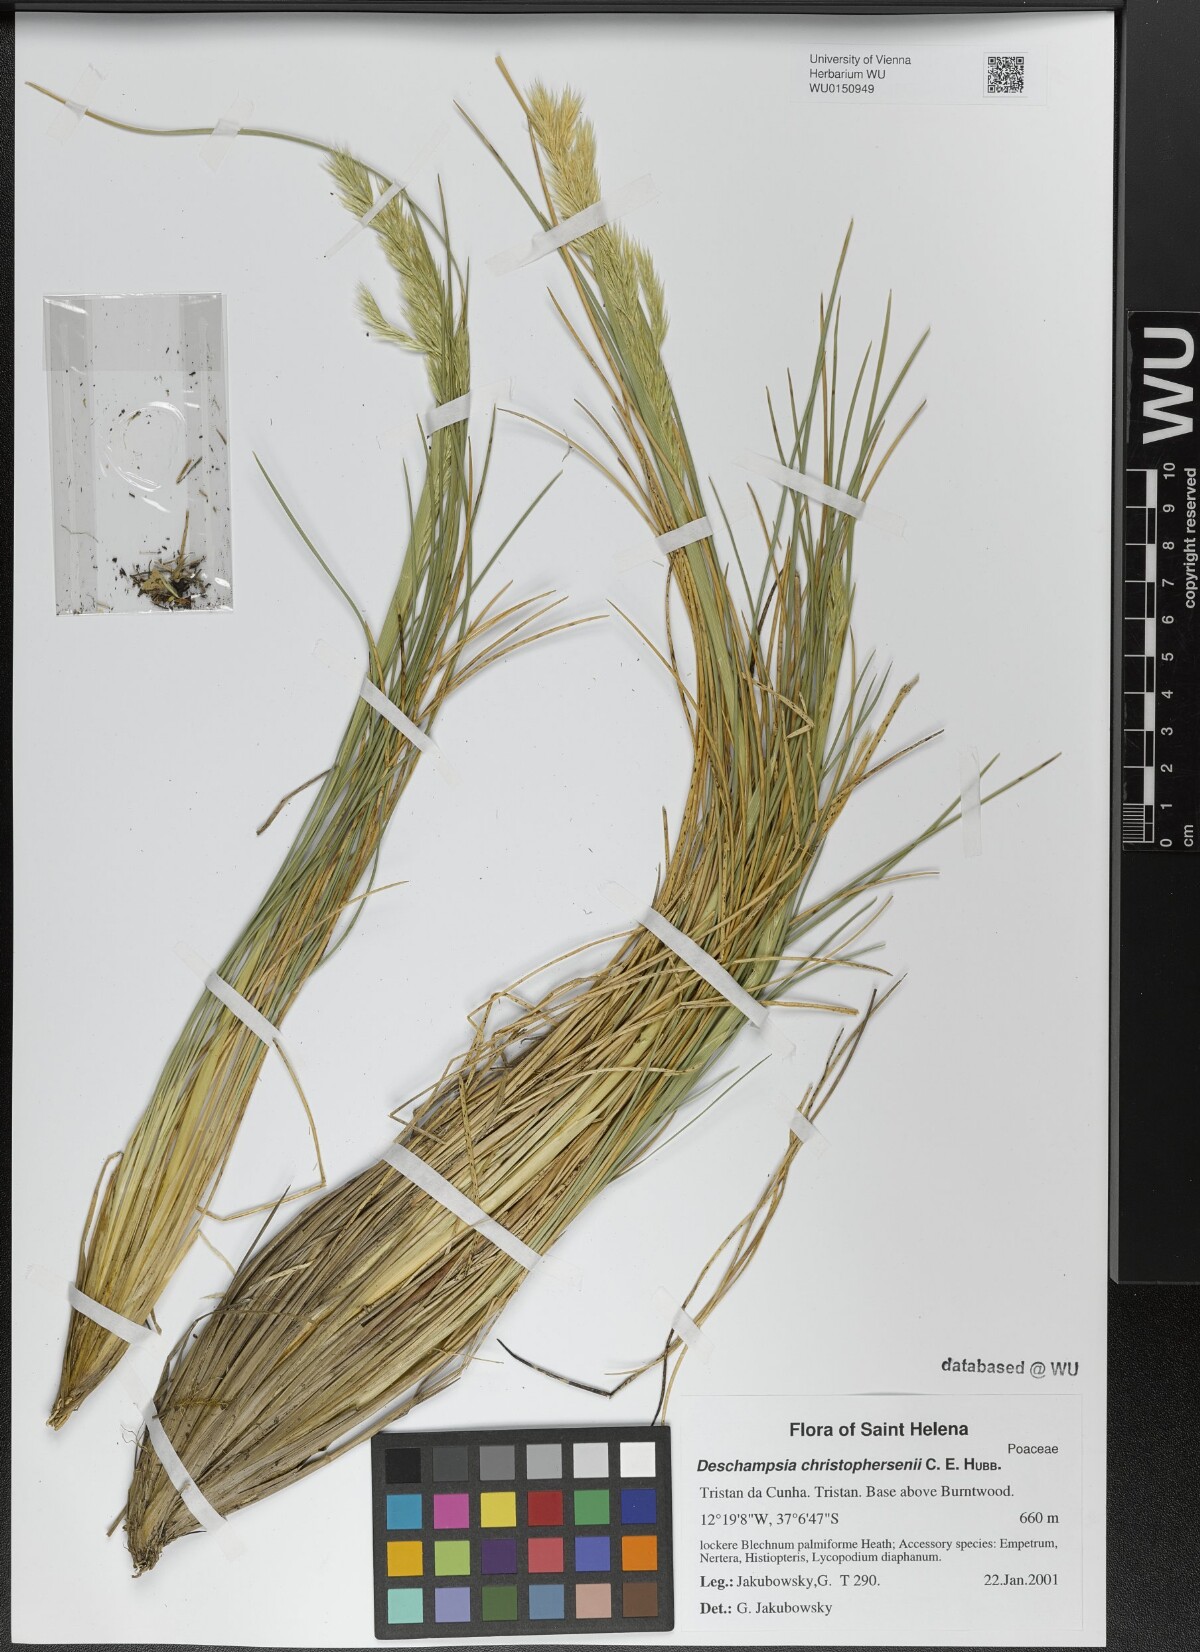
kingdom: Plantae
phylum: Tracheophyta
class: Liliopsida
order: Poales
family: Poaceae
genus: Deschampsia
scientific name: Deschampsia christophersenii
